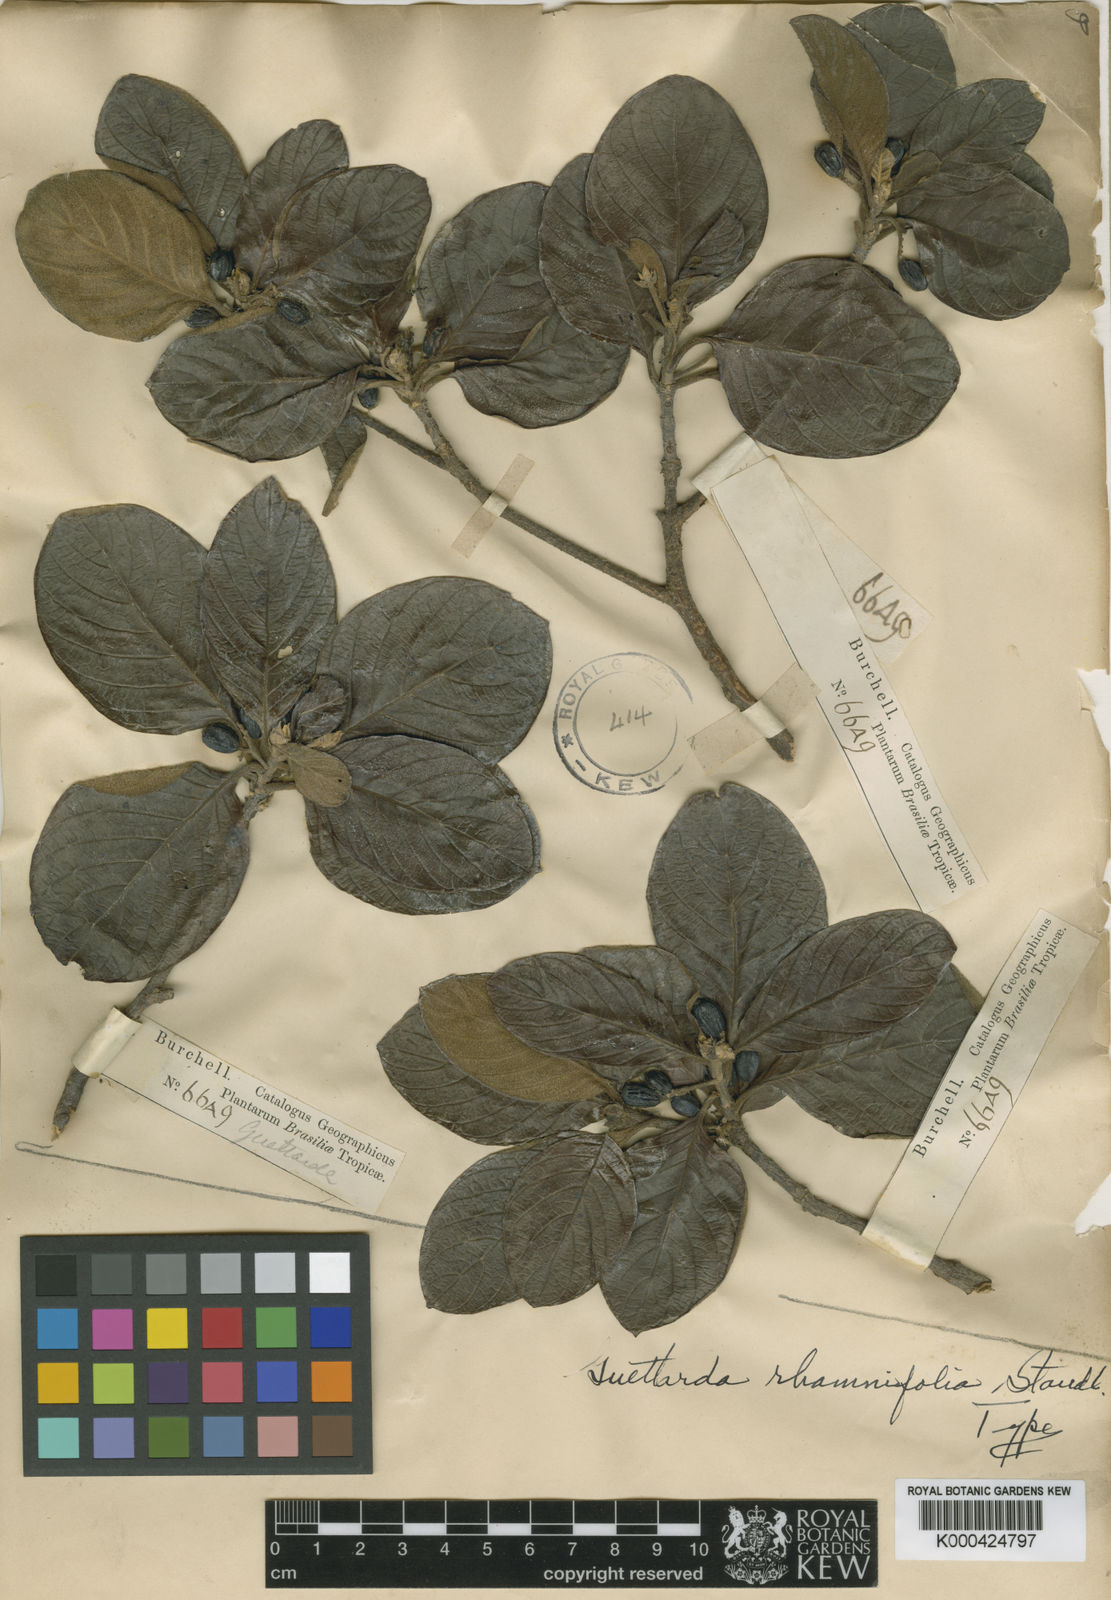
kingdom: Plantae
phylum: Tracheophyta
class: Magnoliopsida
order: Gentianales
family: Rubiaceae
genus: Guettarda
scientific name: Guettarda rhamnifolia
